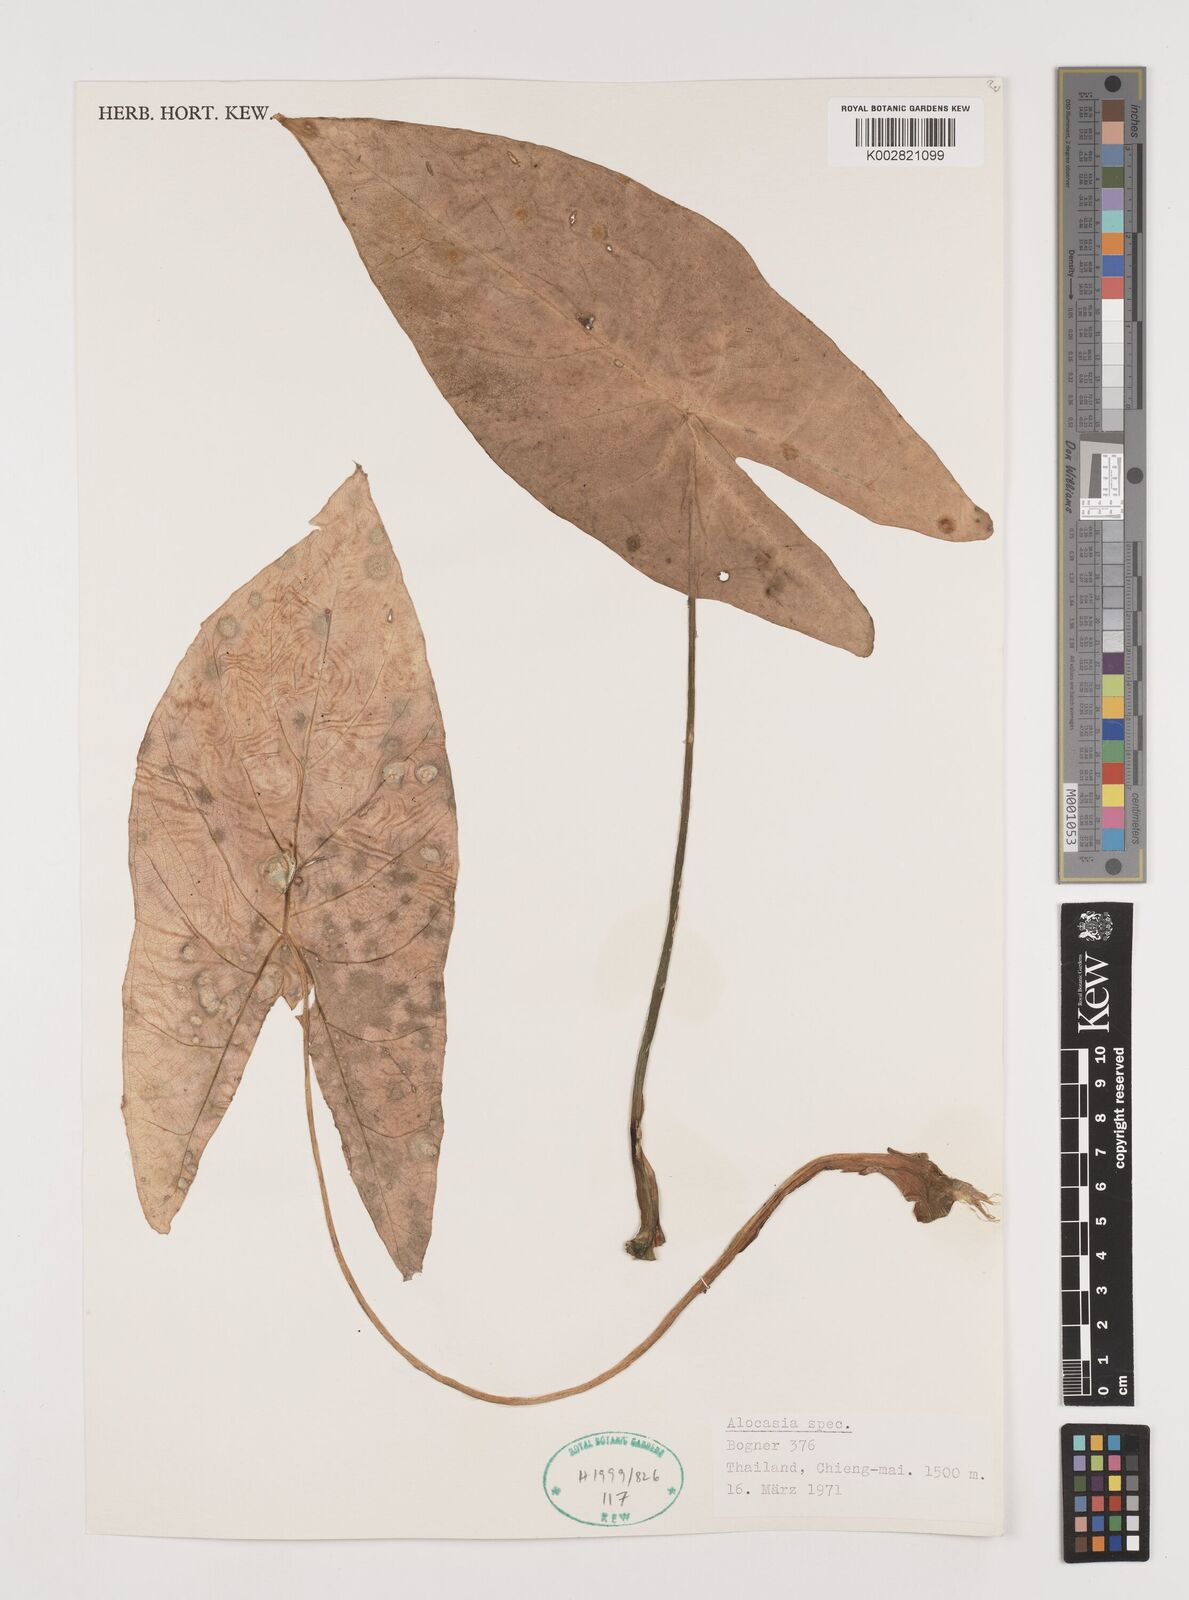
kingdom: Plantae
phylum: Tracheophyta
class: Liliopsida
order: Alismatales
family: Araceae
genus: Alocasia
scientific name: Alocasia
